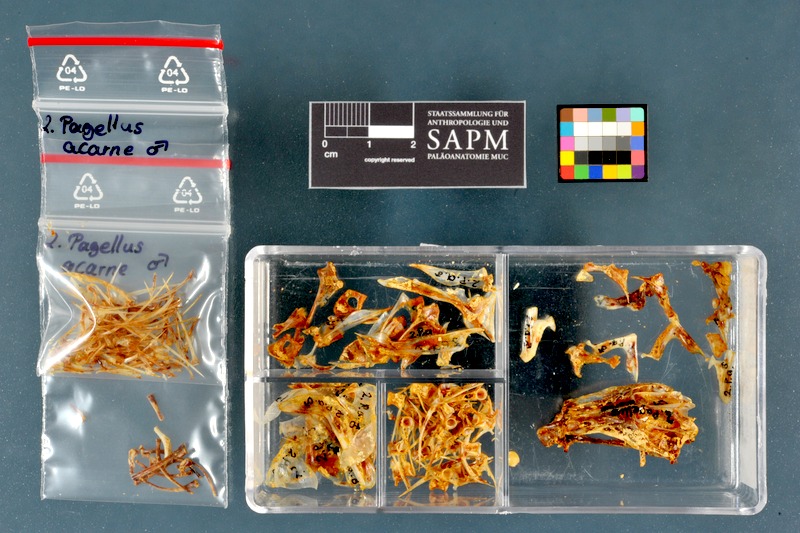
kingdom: Animalia
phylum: Chordata
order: Perciformes
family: Sparidae
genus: Pagellus
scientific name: Pagellus acarne
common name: Axillary sea-bream
